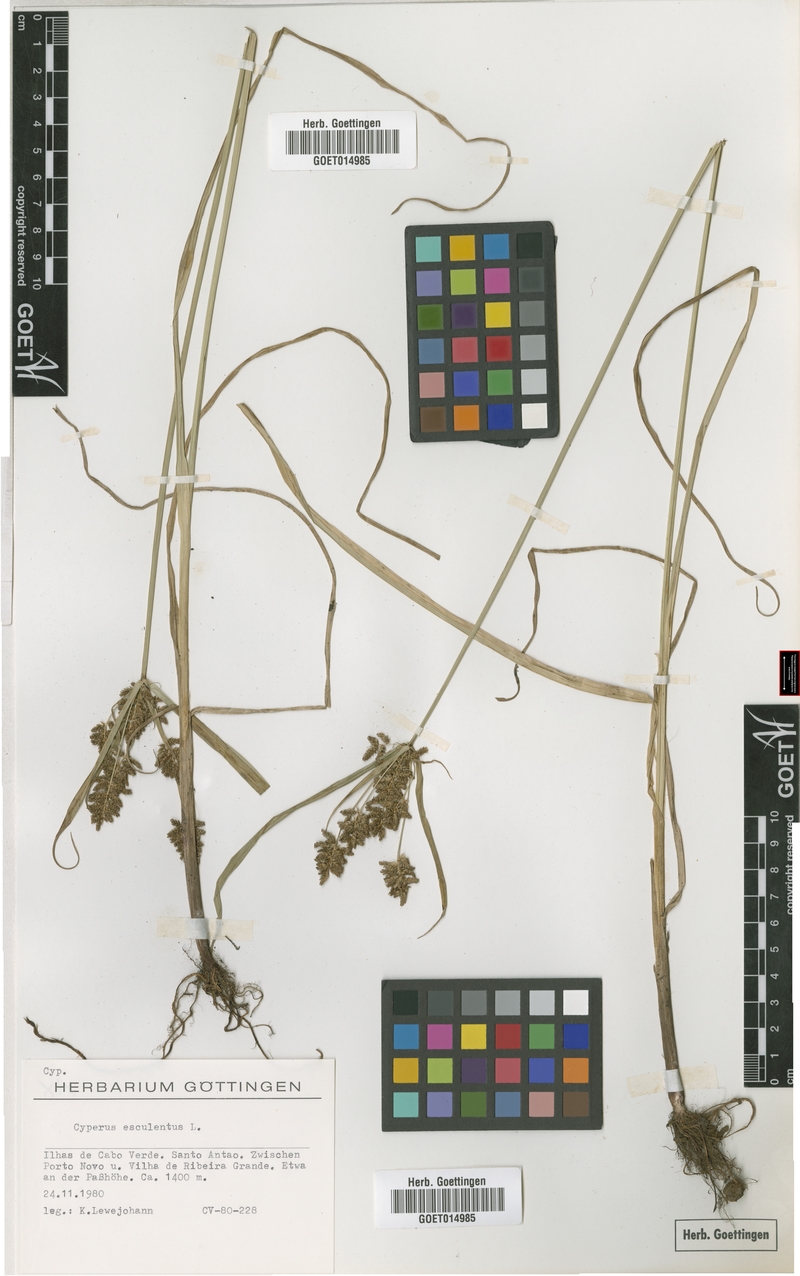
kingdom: Plantae
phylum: Tracheophyta
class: Liliopsida
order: Poales
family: Cyperaceae
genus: Cyperus
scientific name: Cyperus esculentus
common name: Yellow nutsedge
